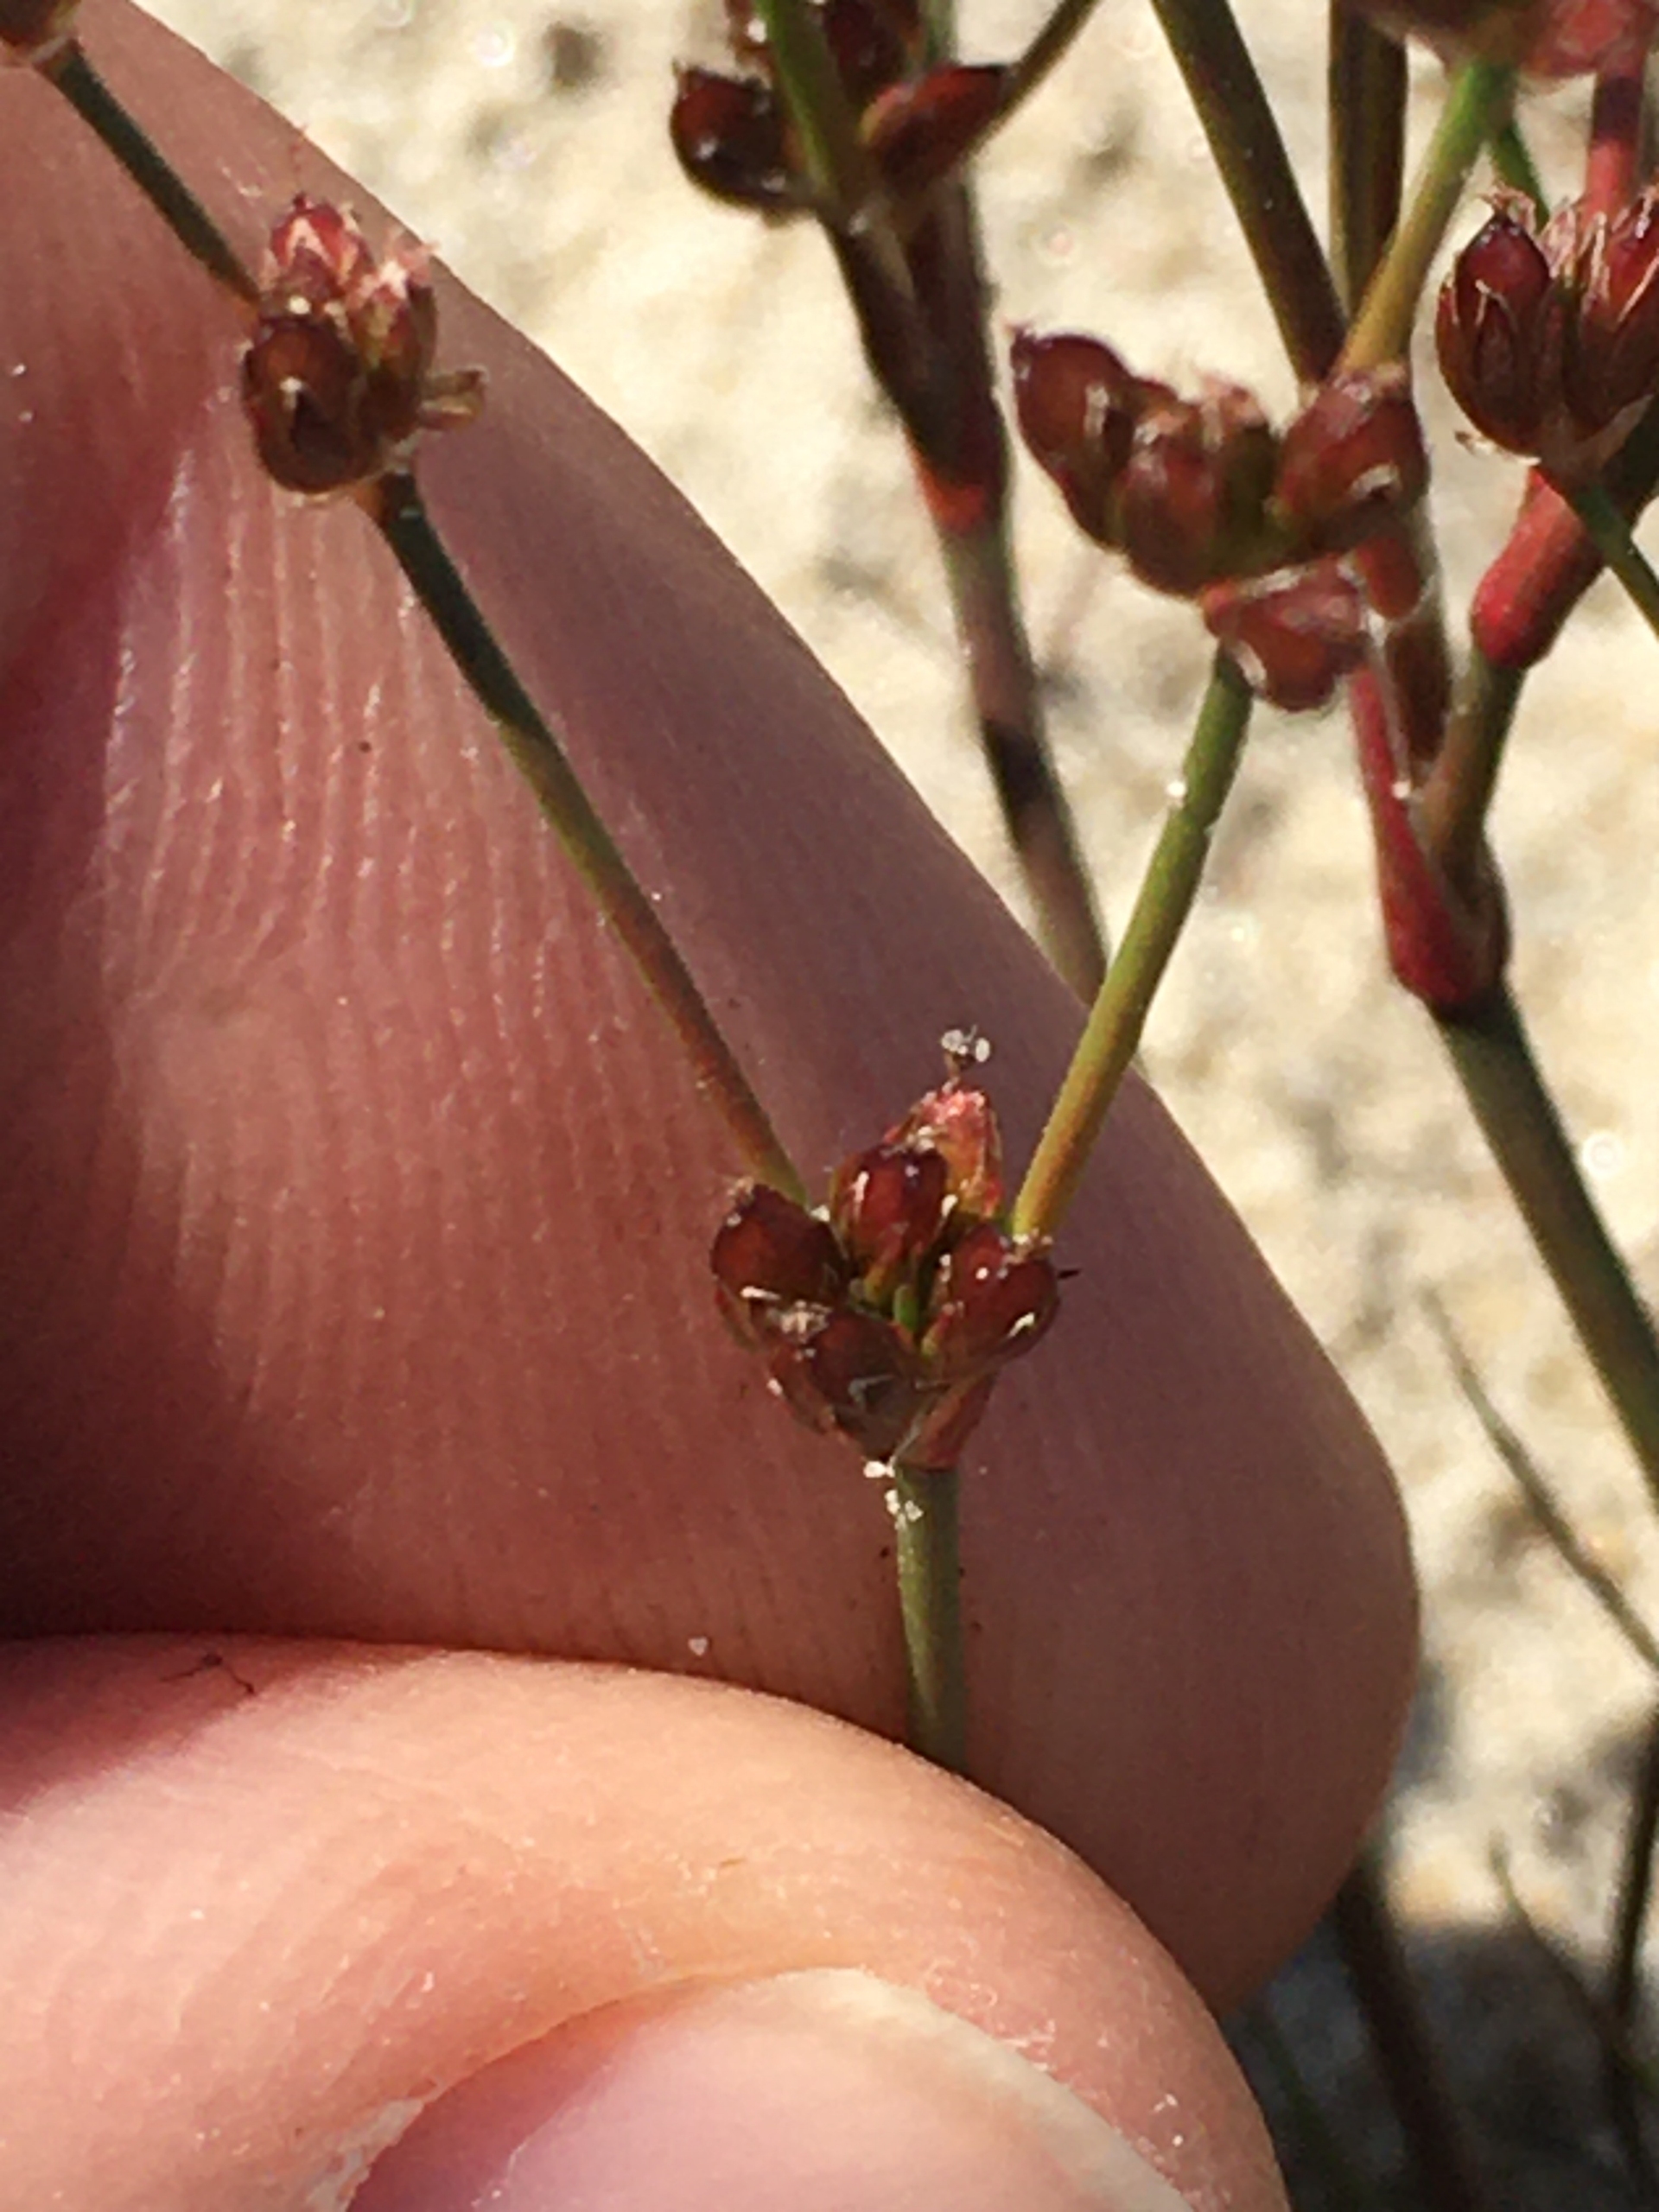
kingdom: Plantae
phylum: Tracheophyta
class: Liliopsida
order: Poales
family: Juncaceae
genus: Juncus
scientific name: Juncus bulbosus
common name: Liden siv
